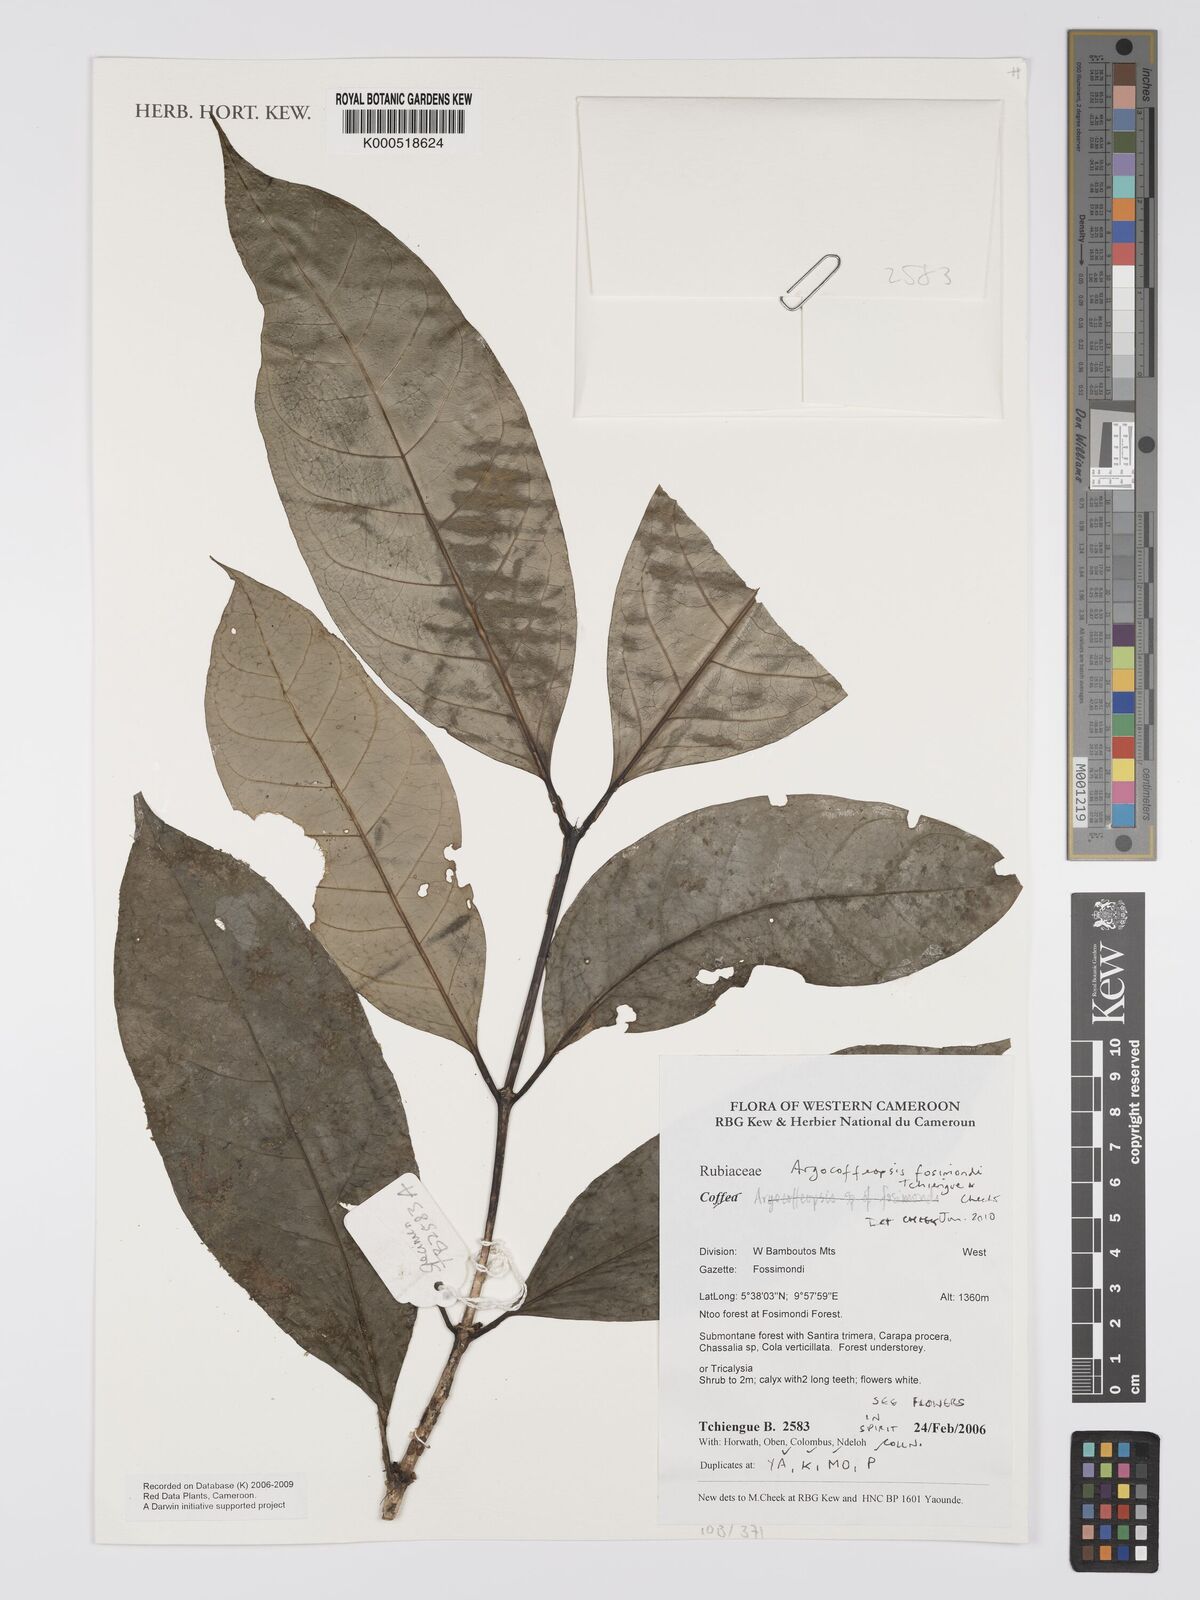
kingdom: Plantae
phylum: Tracheophyta
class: Magnoliopsida
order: Gentianales
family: Rubiaceae
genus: Argocoffeopsis
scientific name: Argocoffeopsis
